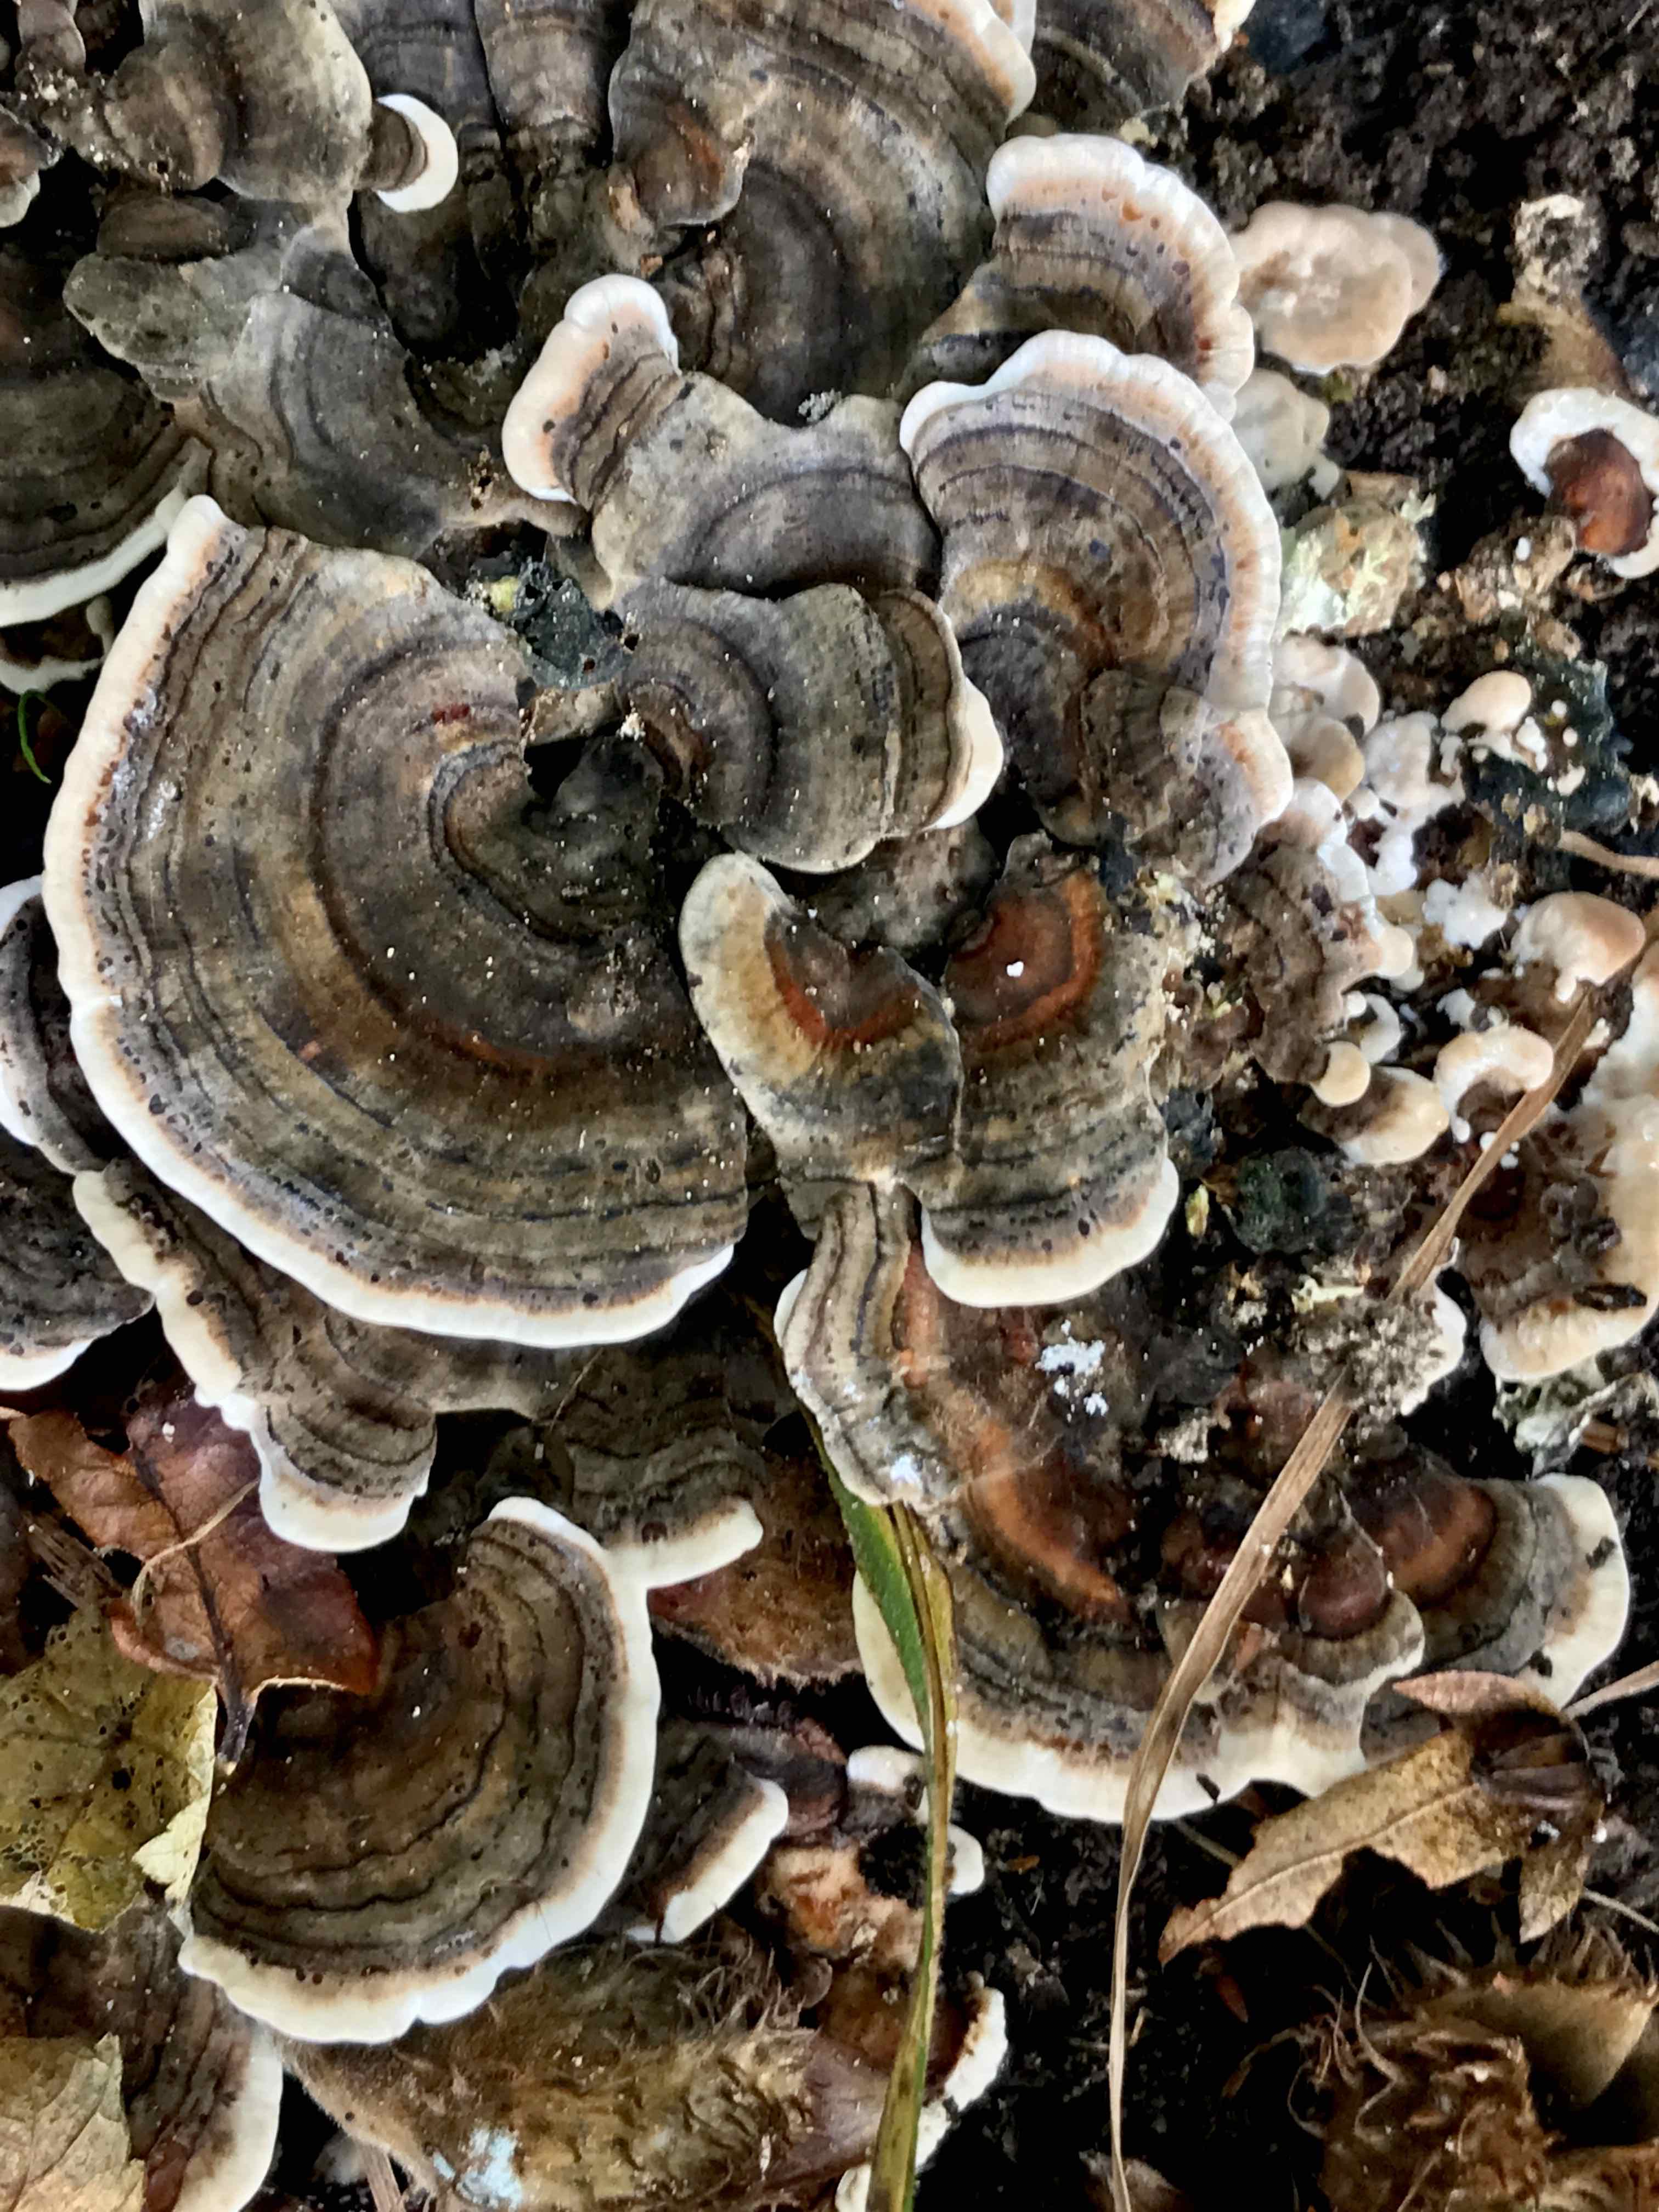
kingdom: Fungi
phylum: Basidiomycota
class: Agaricomycetes
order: Polyporales
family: Polyporaceae
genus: Trametes
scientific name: Trametes versicolor
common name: broget læderporesvamp
